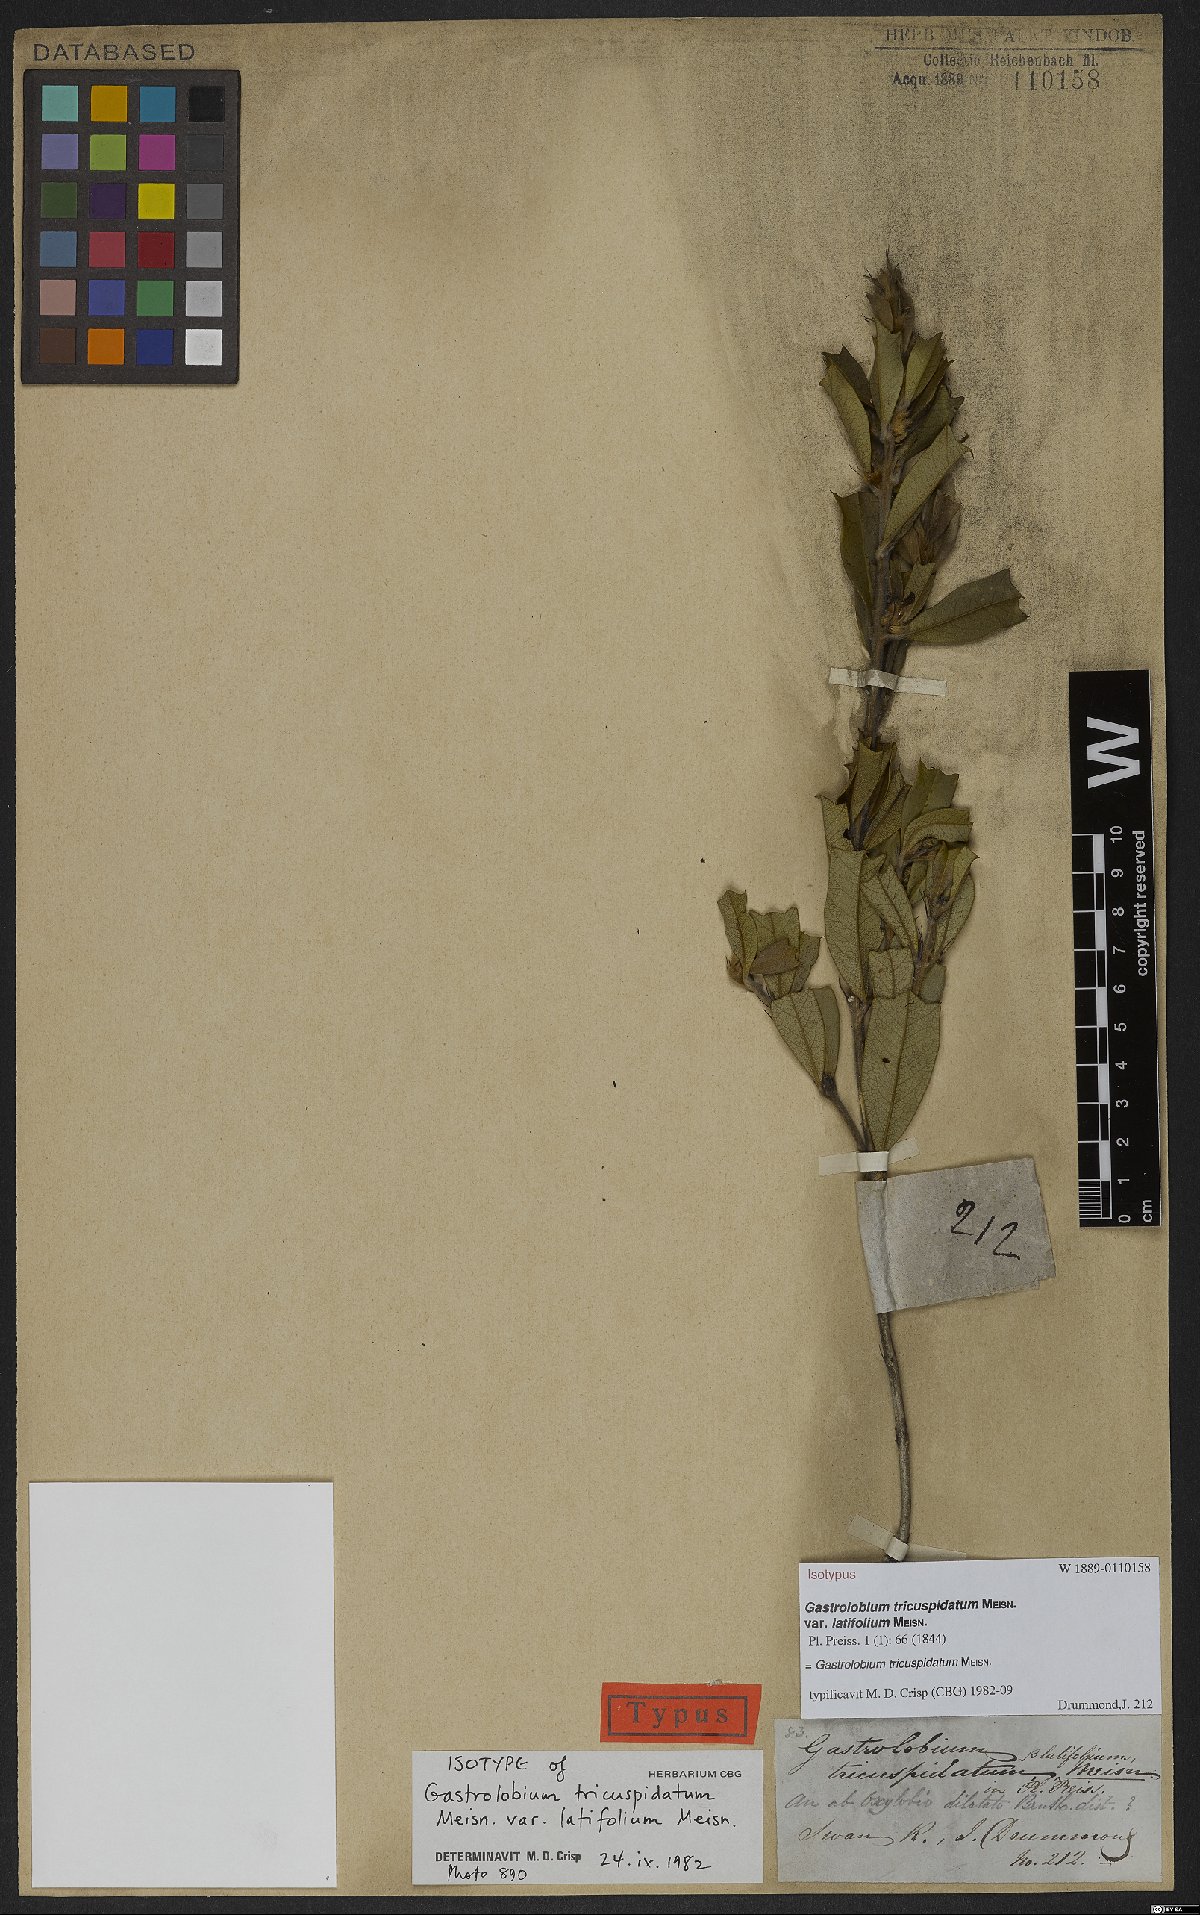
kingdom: Plantae
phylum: Tracheophyta
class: Magnoliopsida
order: Fabales
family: Fabaceae
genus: Gastrolobium
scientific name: Gastrolobium tricuspidatum
